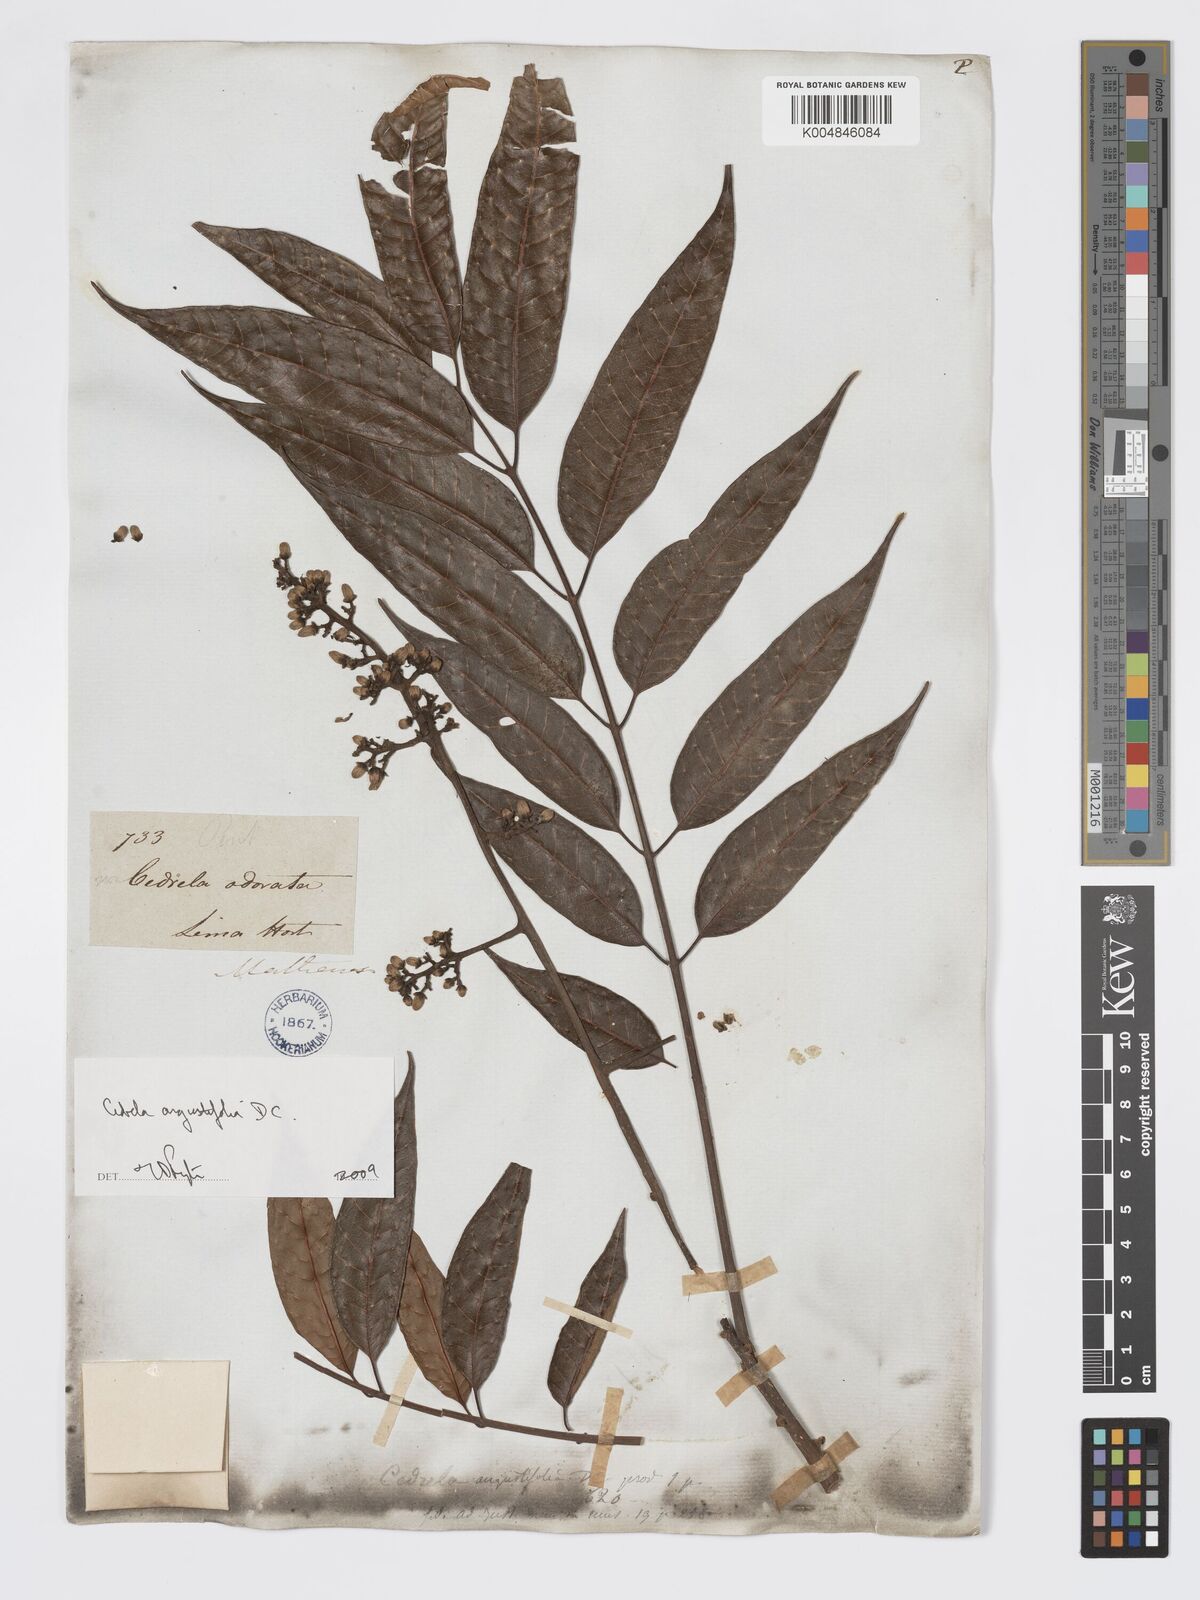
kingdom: Plantae
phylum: Tracheophyta
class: Magnoliopsida
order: Sapindales
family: Meliaceae
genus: Cedrela
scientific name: Cedrela odorata
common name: Red cedar
